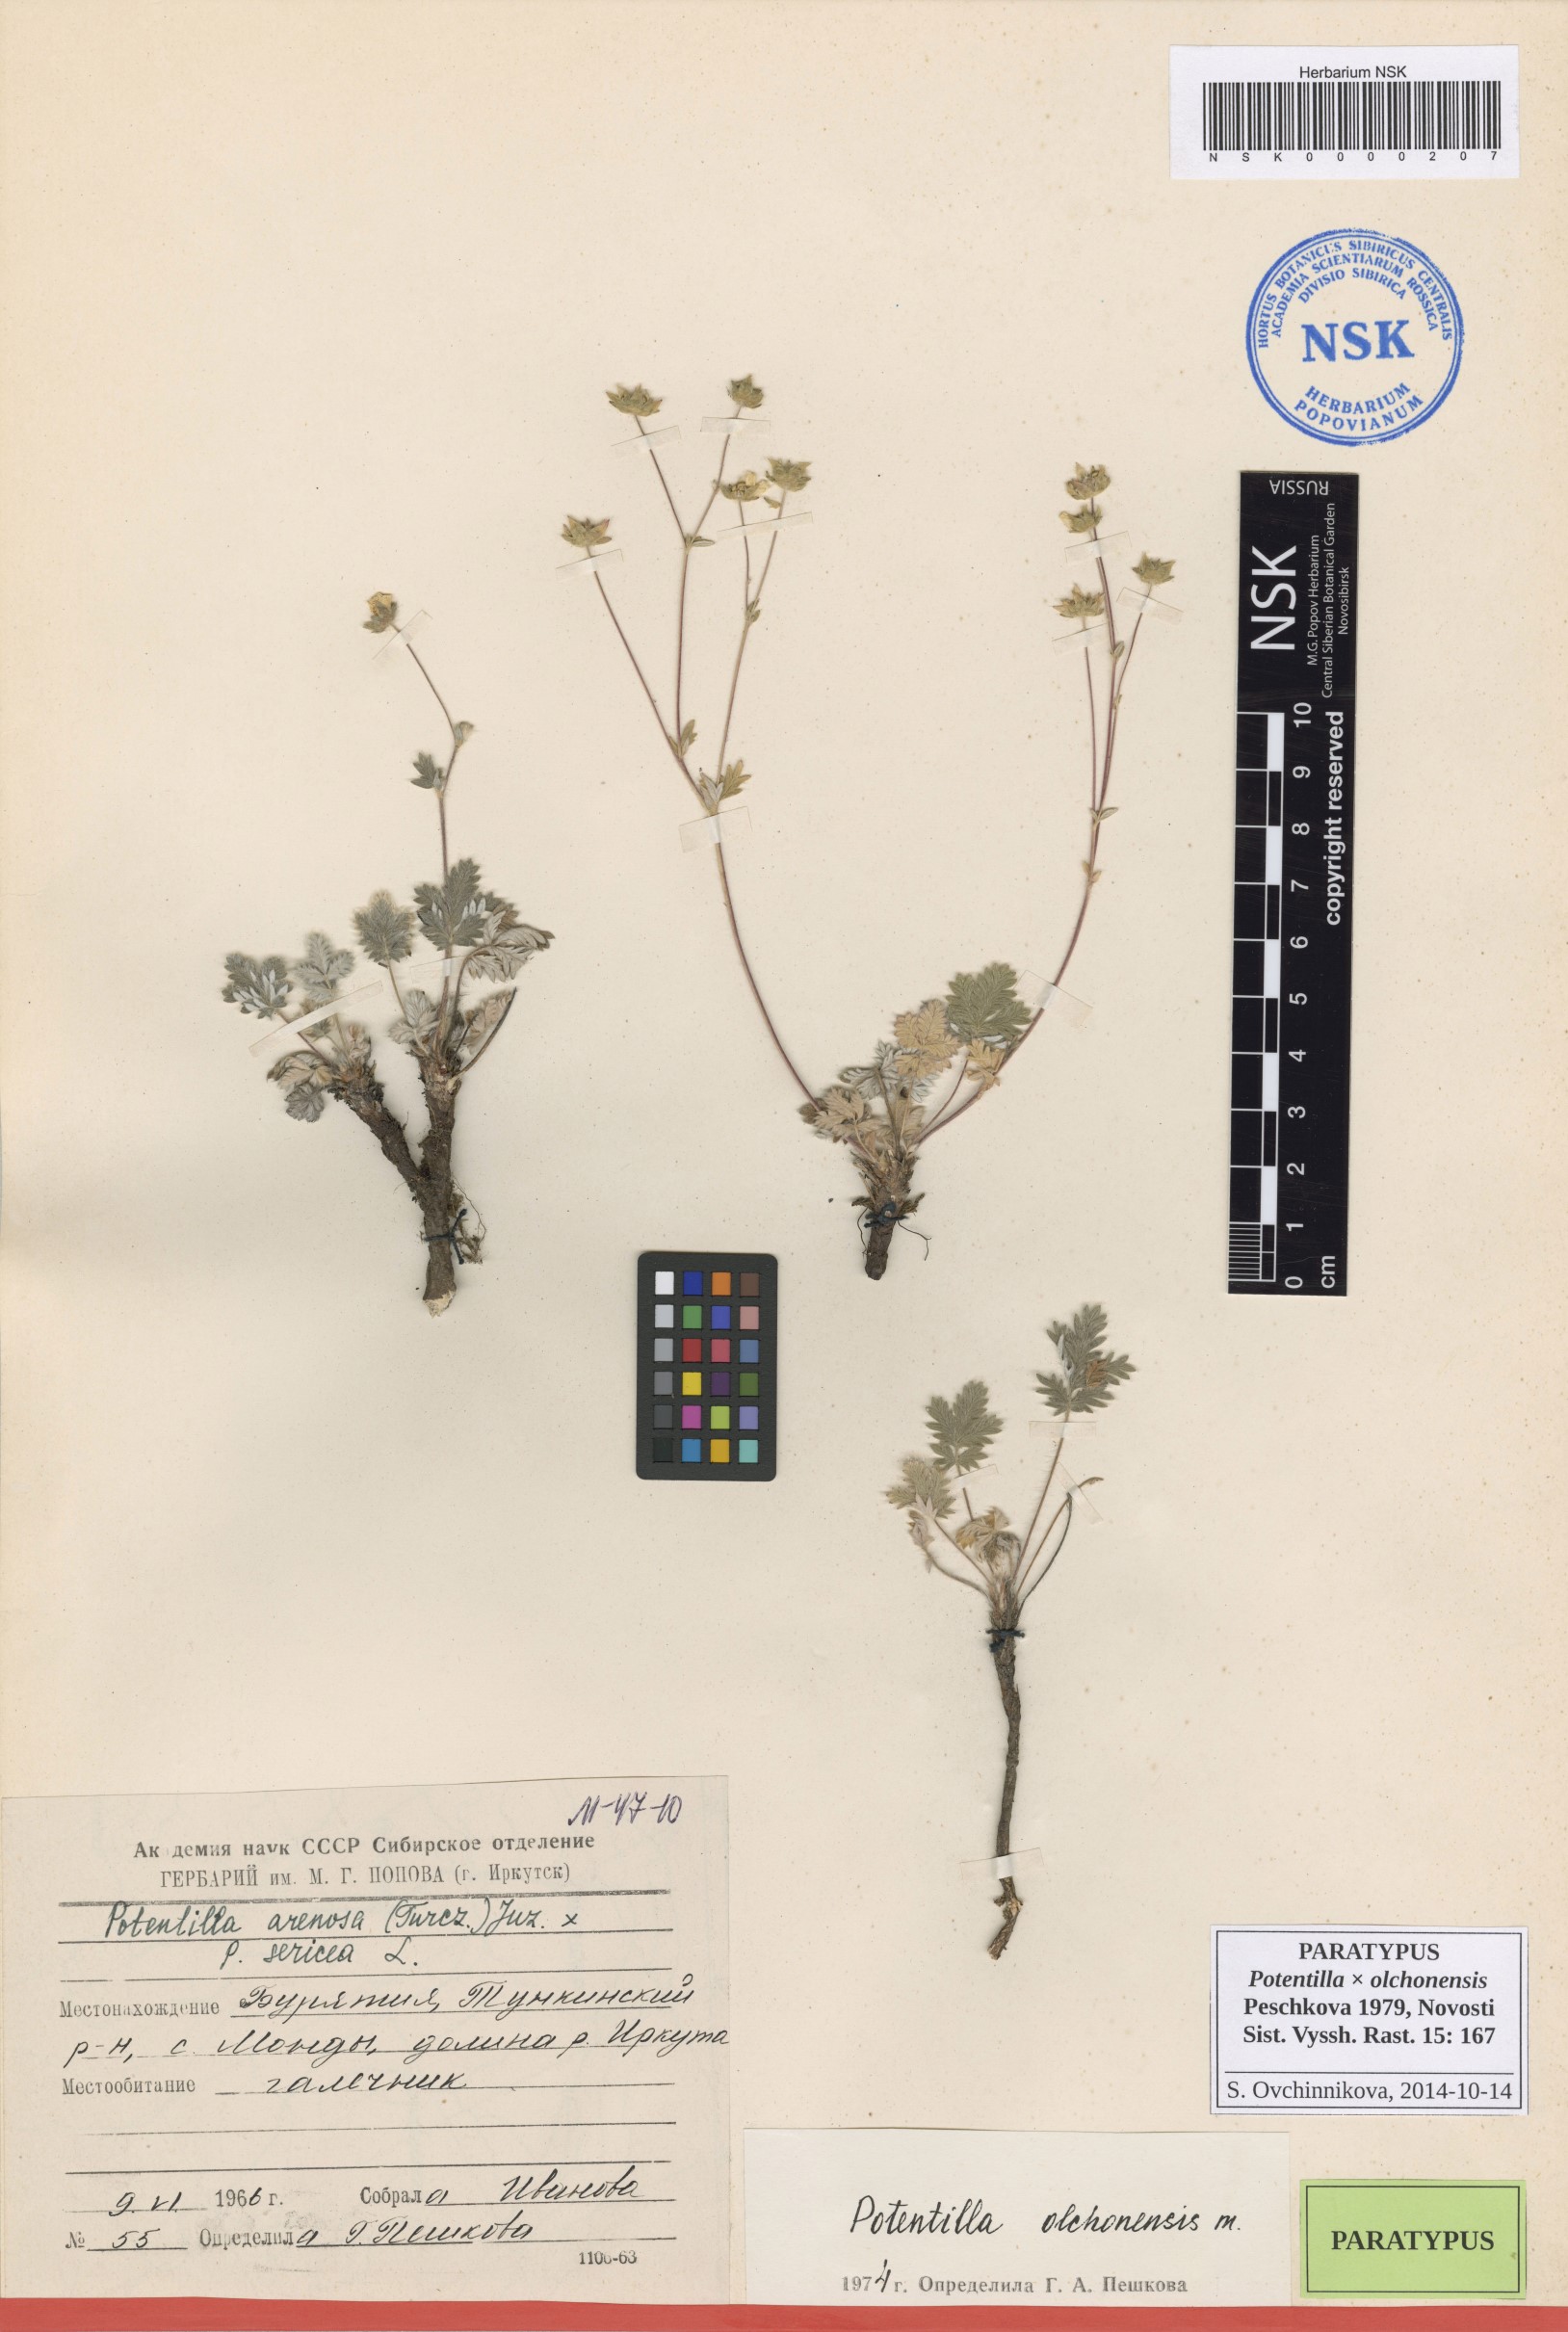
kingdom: Plantae
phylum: Tracheophyta
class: Magnoliopsida
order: Rosales
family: Rosaceae
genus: Potentilla
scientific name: Potentilla olchonensis
